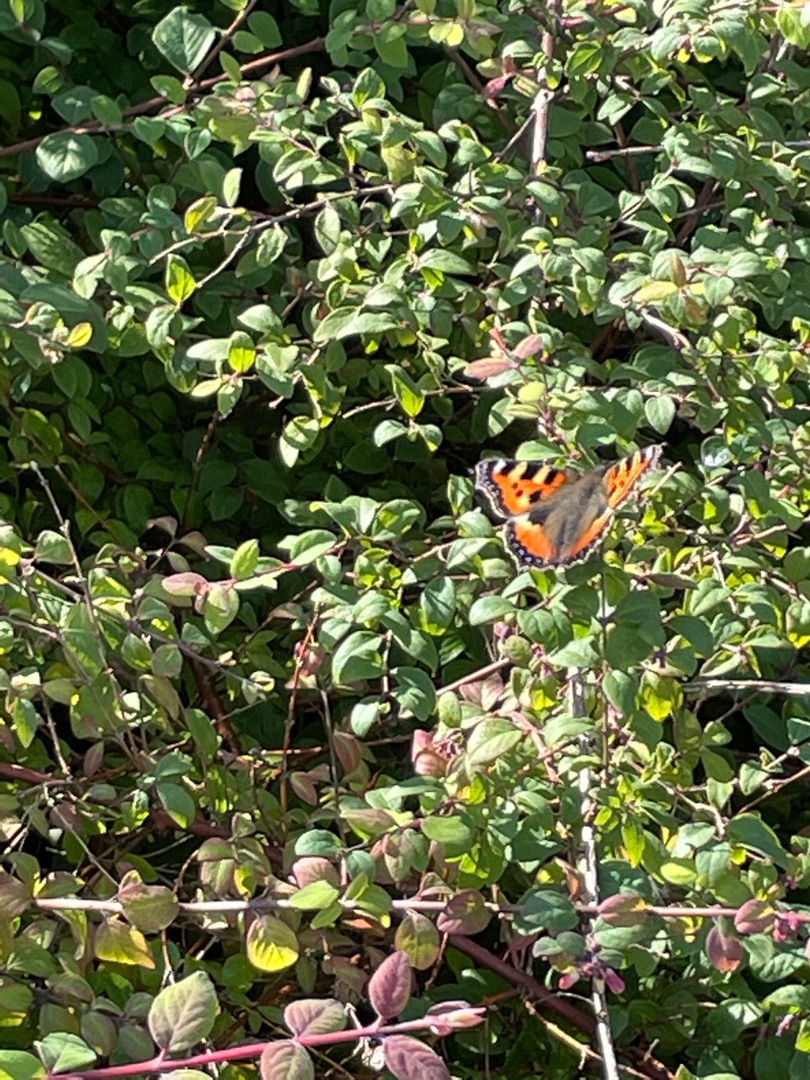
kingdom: Animalia
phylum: Arthropoda
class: Insecta
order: Lepidoptera
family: Nymphalidae
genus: Aglais
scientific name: Aglais urticae
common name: Nældens takvinge
